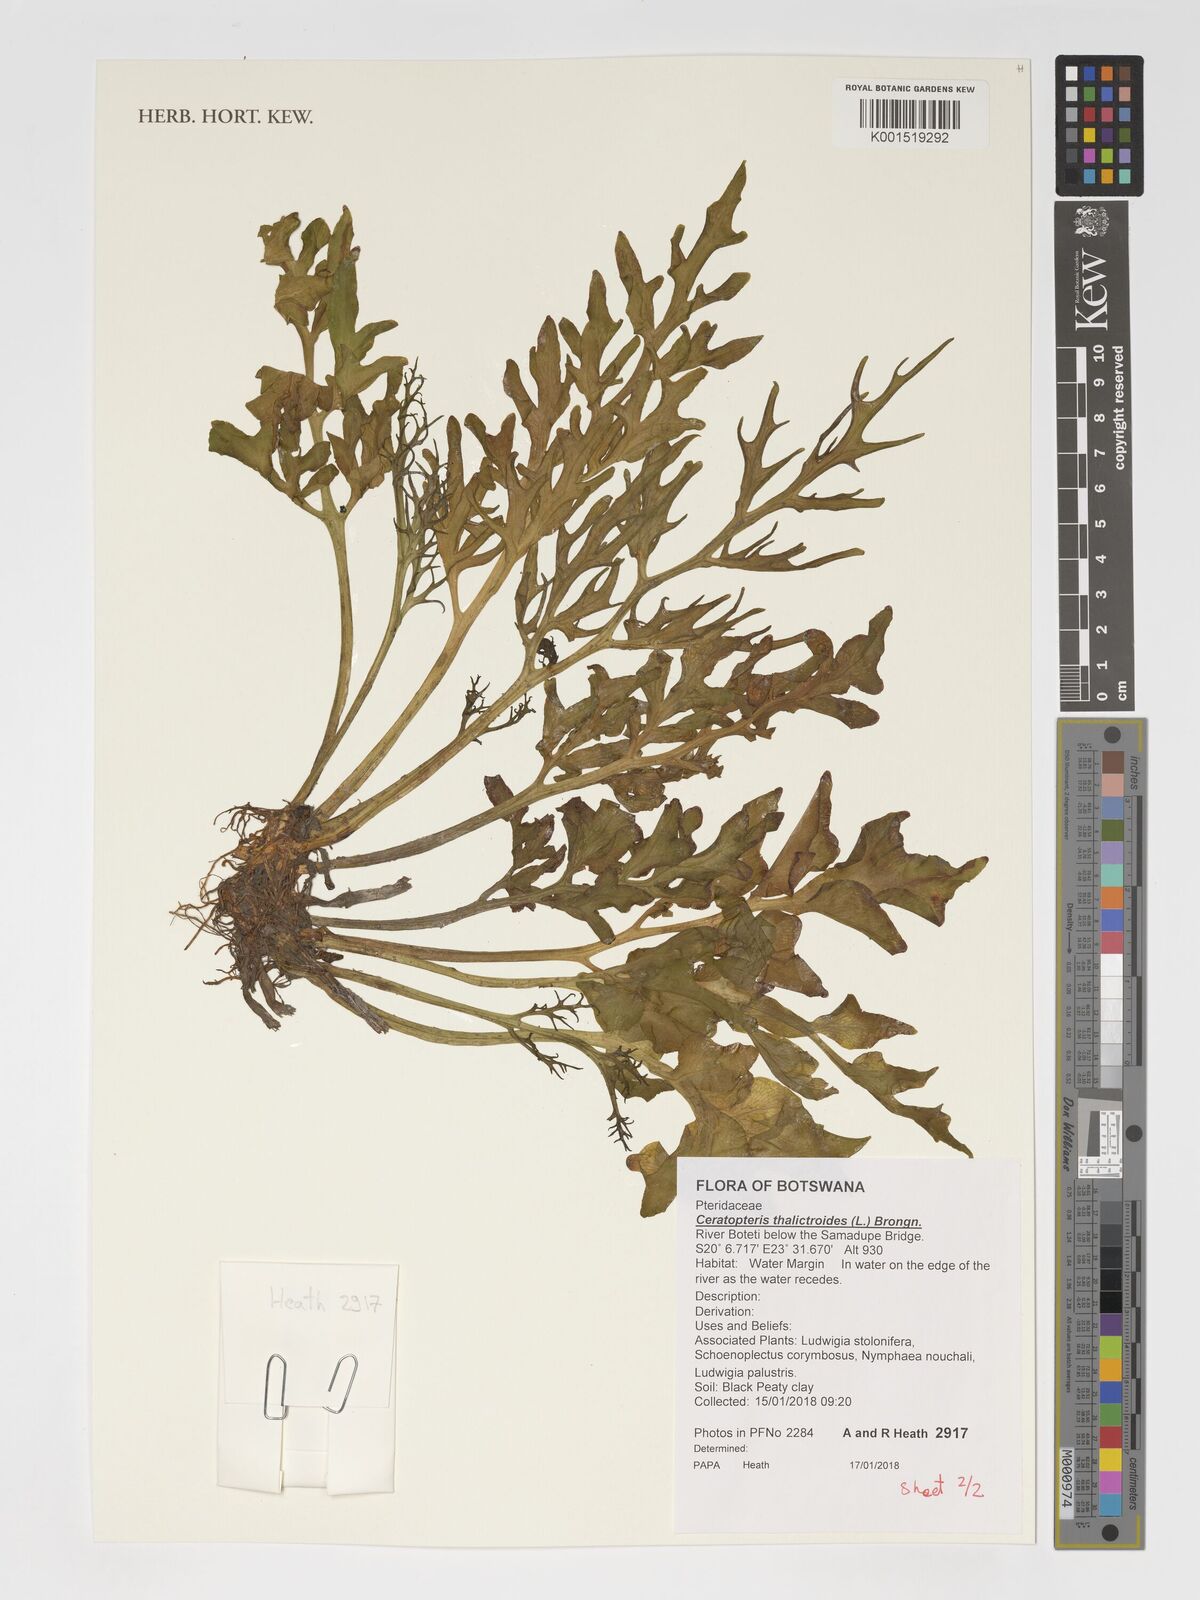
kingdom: Plantae
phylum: Tracheophyta
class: Polypodiopsida
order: Polypodiales
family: Pteridaceae
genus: Ceratopteris
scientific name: Ceratopteris thalictroides
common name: Water fern
